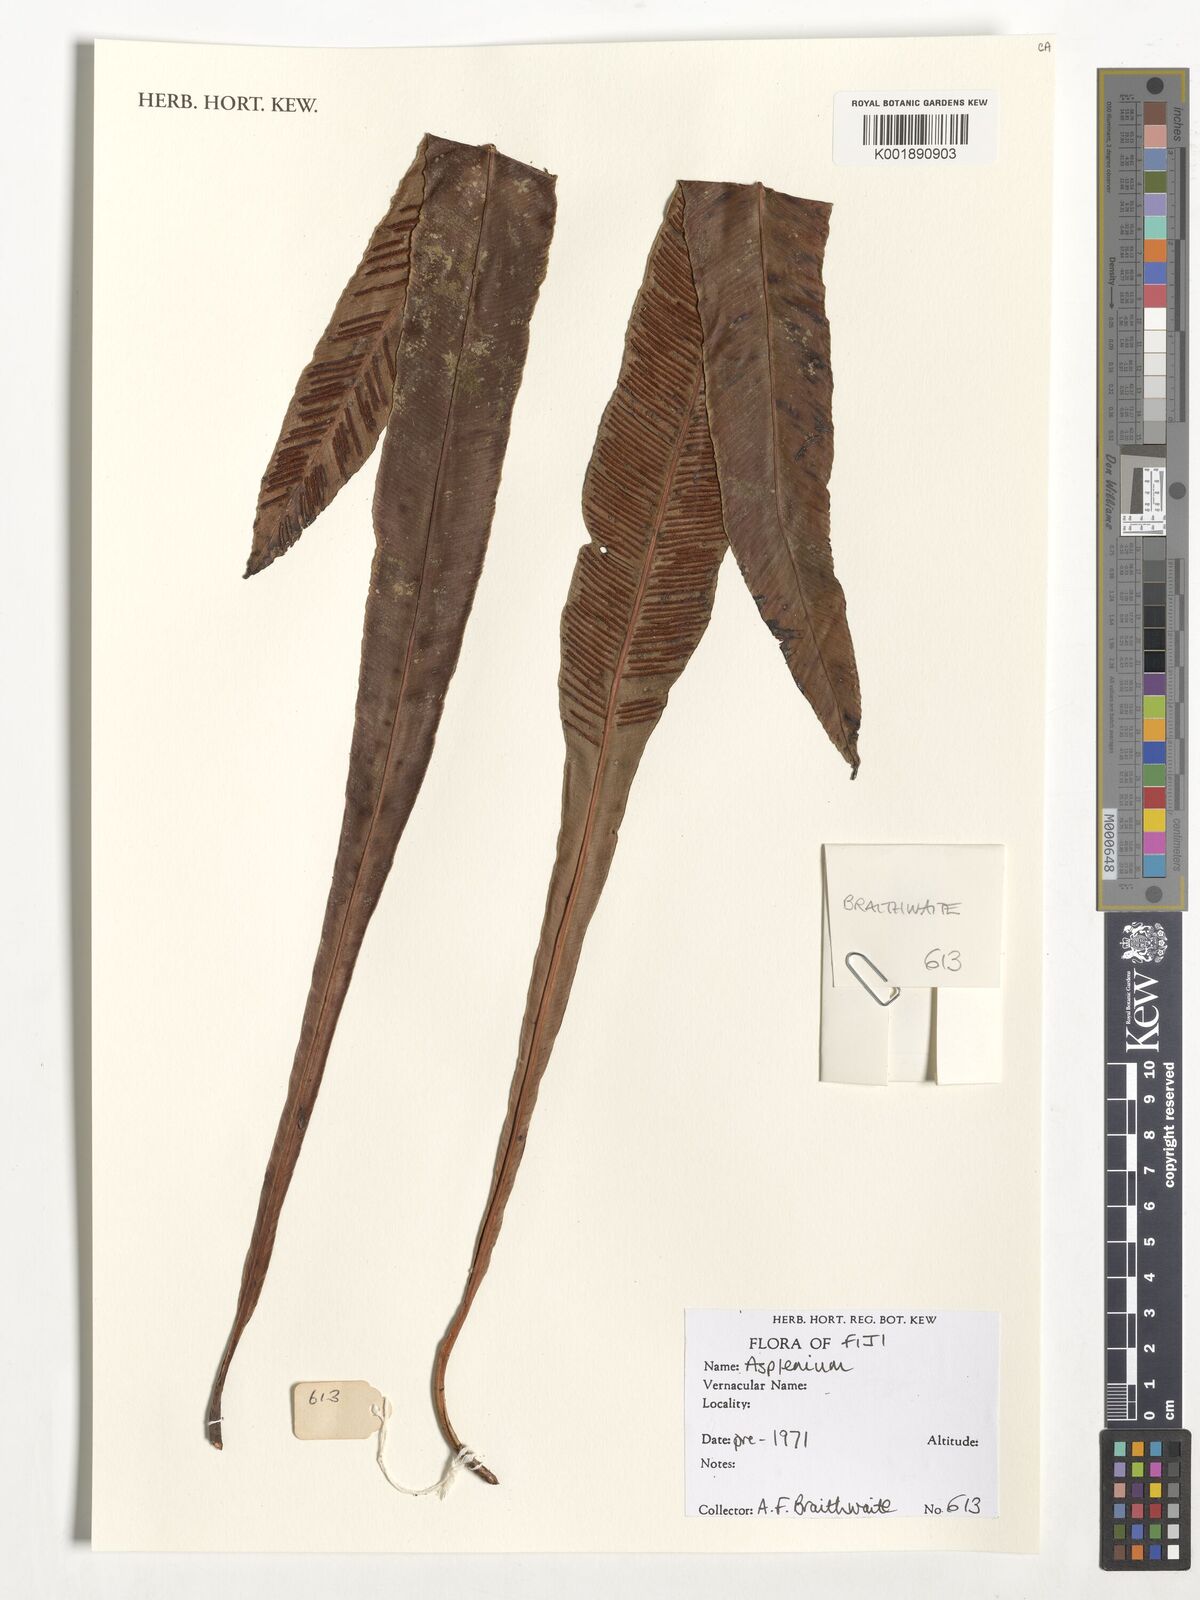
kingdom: Plantae
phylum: Tracheophyta
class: Polypodiopsida
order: Polypodiales
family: Aspleniaceae
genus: Asplenium
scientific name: Asplenium
